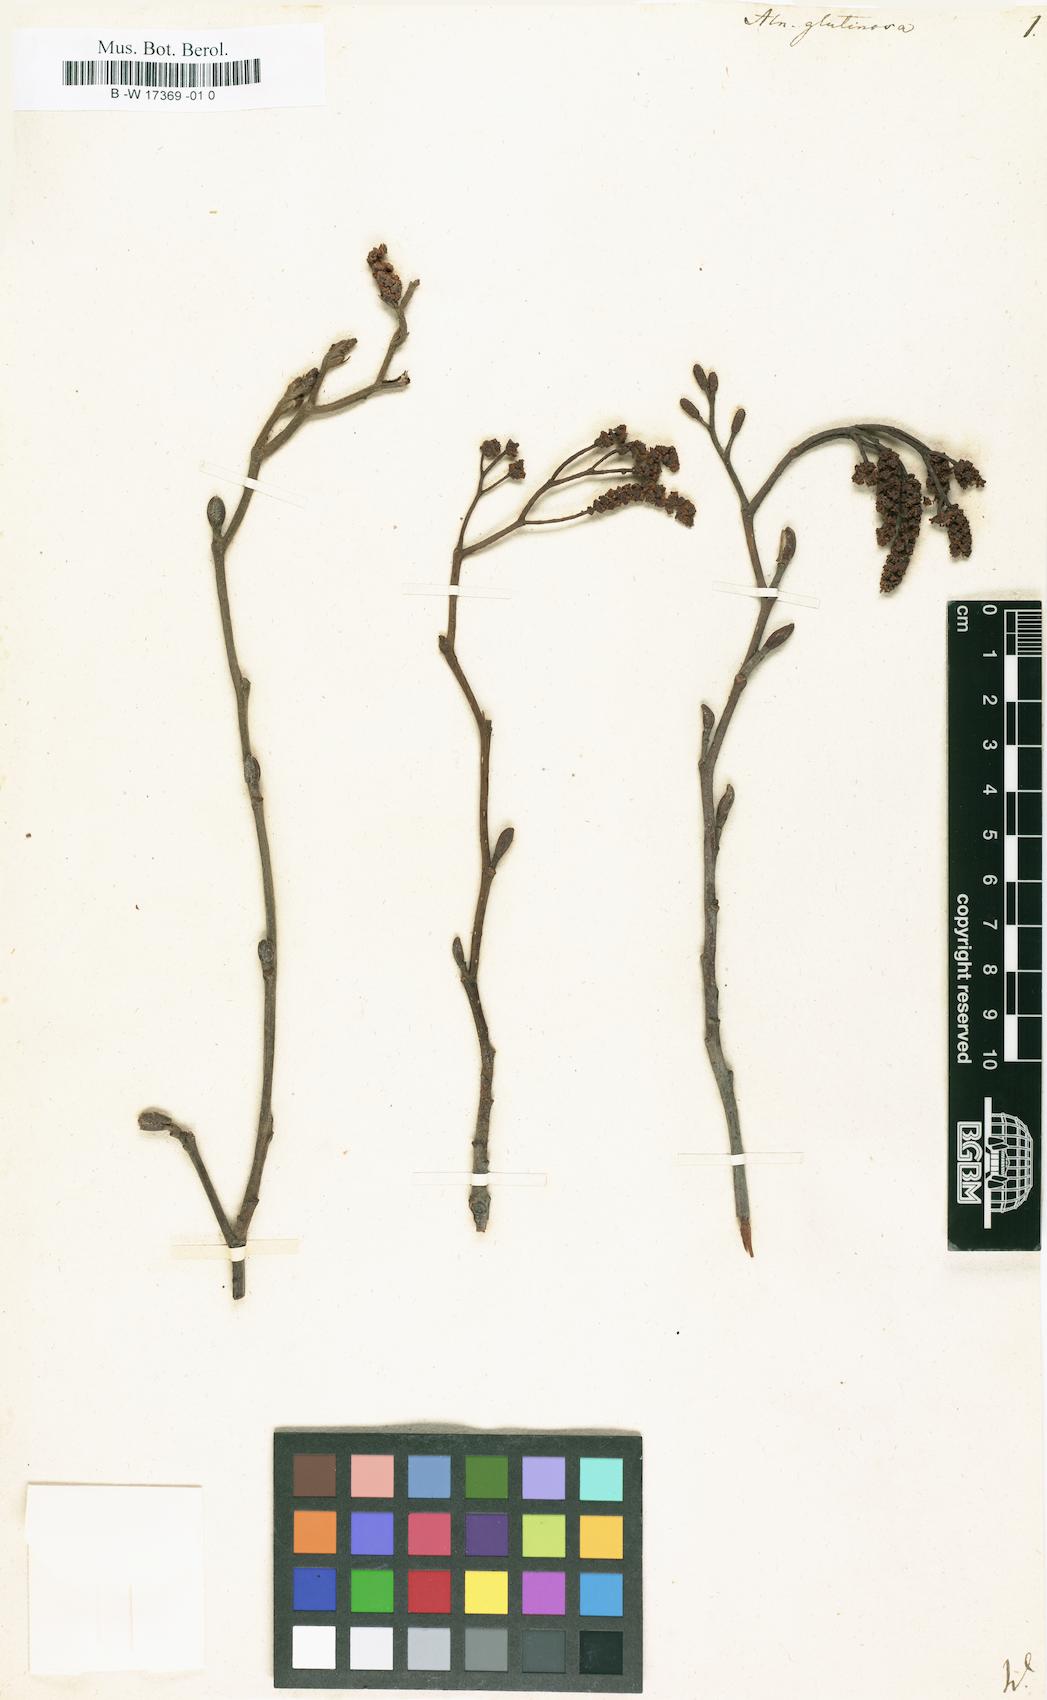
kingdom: Plantae
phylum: Tracheophyta
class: Magnoliopsida
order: Fagales
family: Betulaceae
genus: Alnus
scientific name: Alnus glutinosa
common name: Black alder
